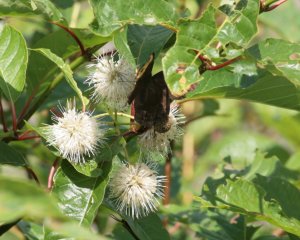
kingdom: Animalia
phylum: Arthropoda
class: Insecta
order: Lepidoptera
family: Nymphalidae
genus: Cercyonis
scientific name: Cercyonis pegala
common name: Common Wood-Nymph
